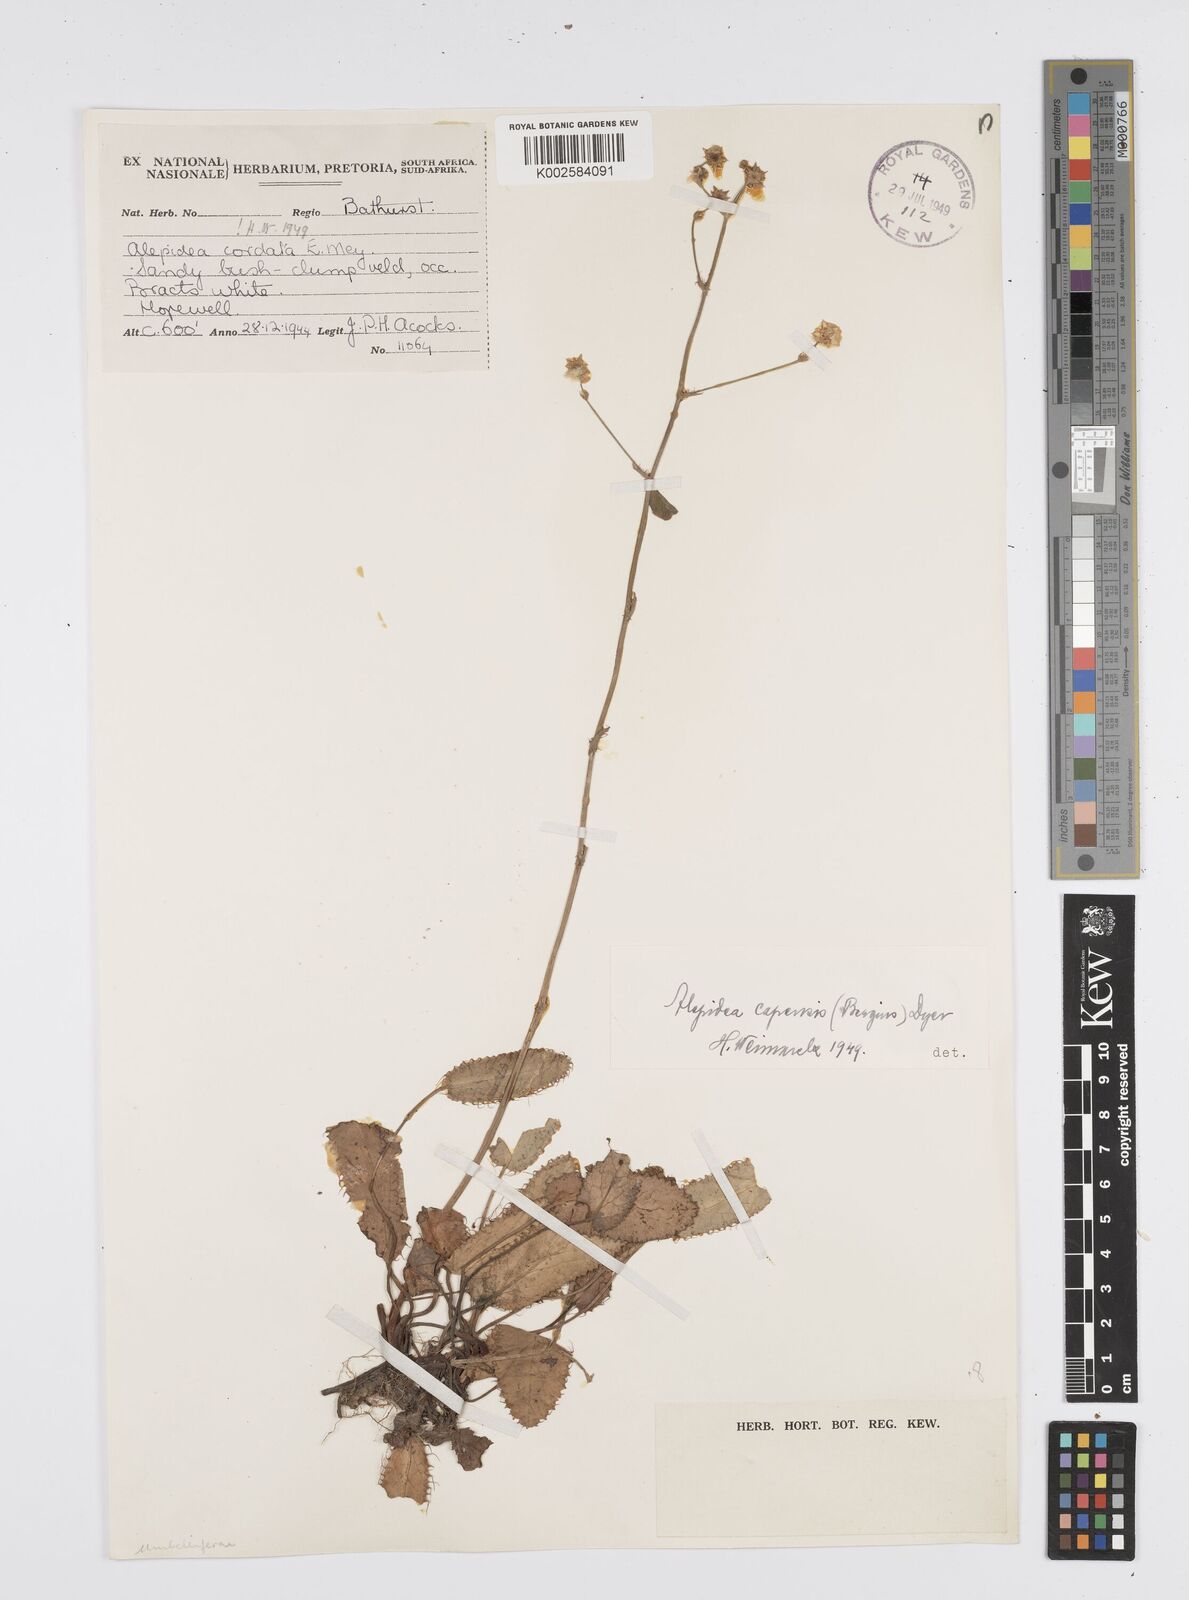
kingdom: Plantae
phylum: Tracheophyta
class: Magnoliopsida
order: Apiales
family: Apiaceae
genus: Alepidea
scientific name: Alepidea capensis
